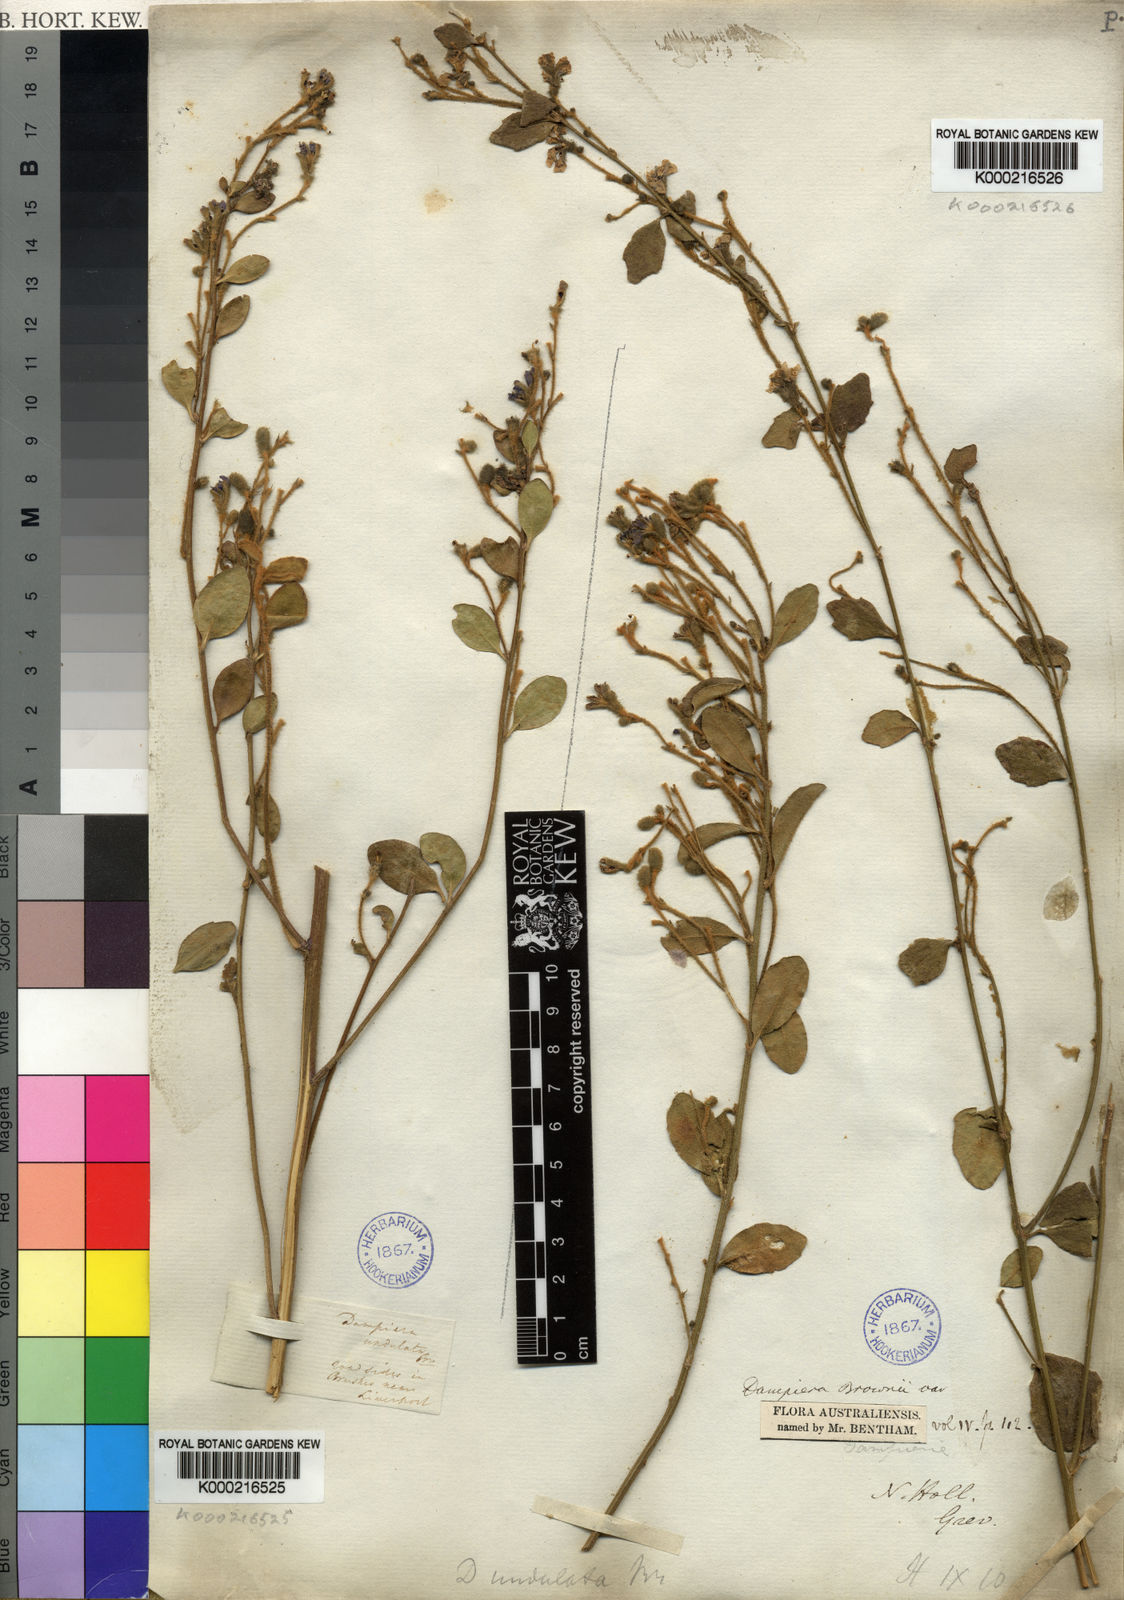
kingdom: Plantae
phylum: Tracheophyta
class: Magnoliopsida
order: Asterales
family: Goodeniaceae
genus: Dampiera
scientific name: Dampiera purpurea
